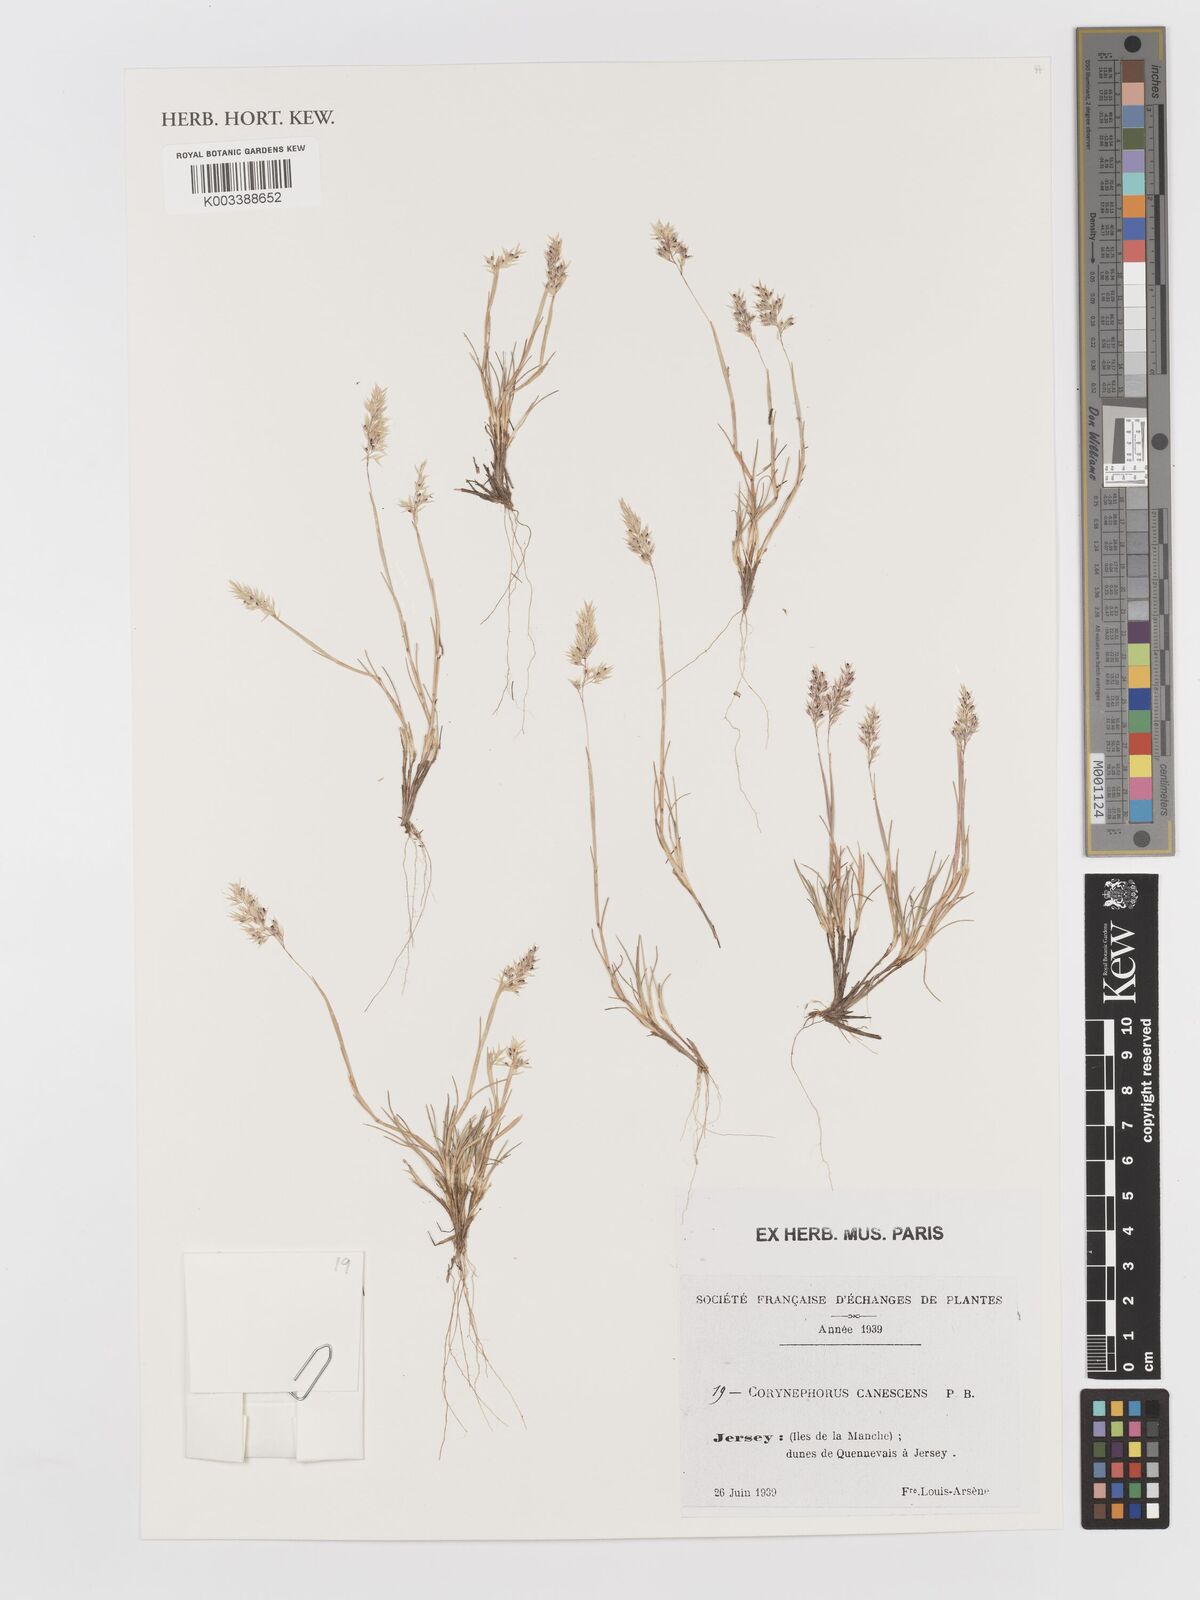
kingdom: Plantae
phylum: Tracheophyta
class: Liliopsida
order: Poales
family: Poaceae
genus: Corynephorus
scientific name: Corynephorus canescens
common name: Grey hair-grass
